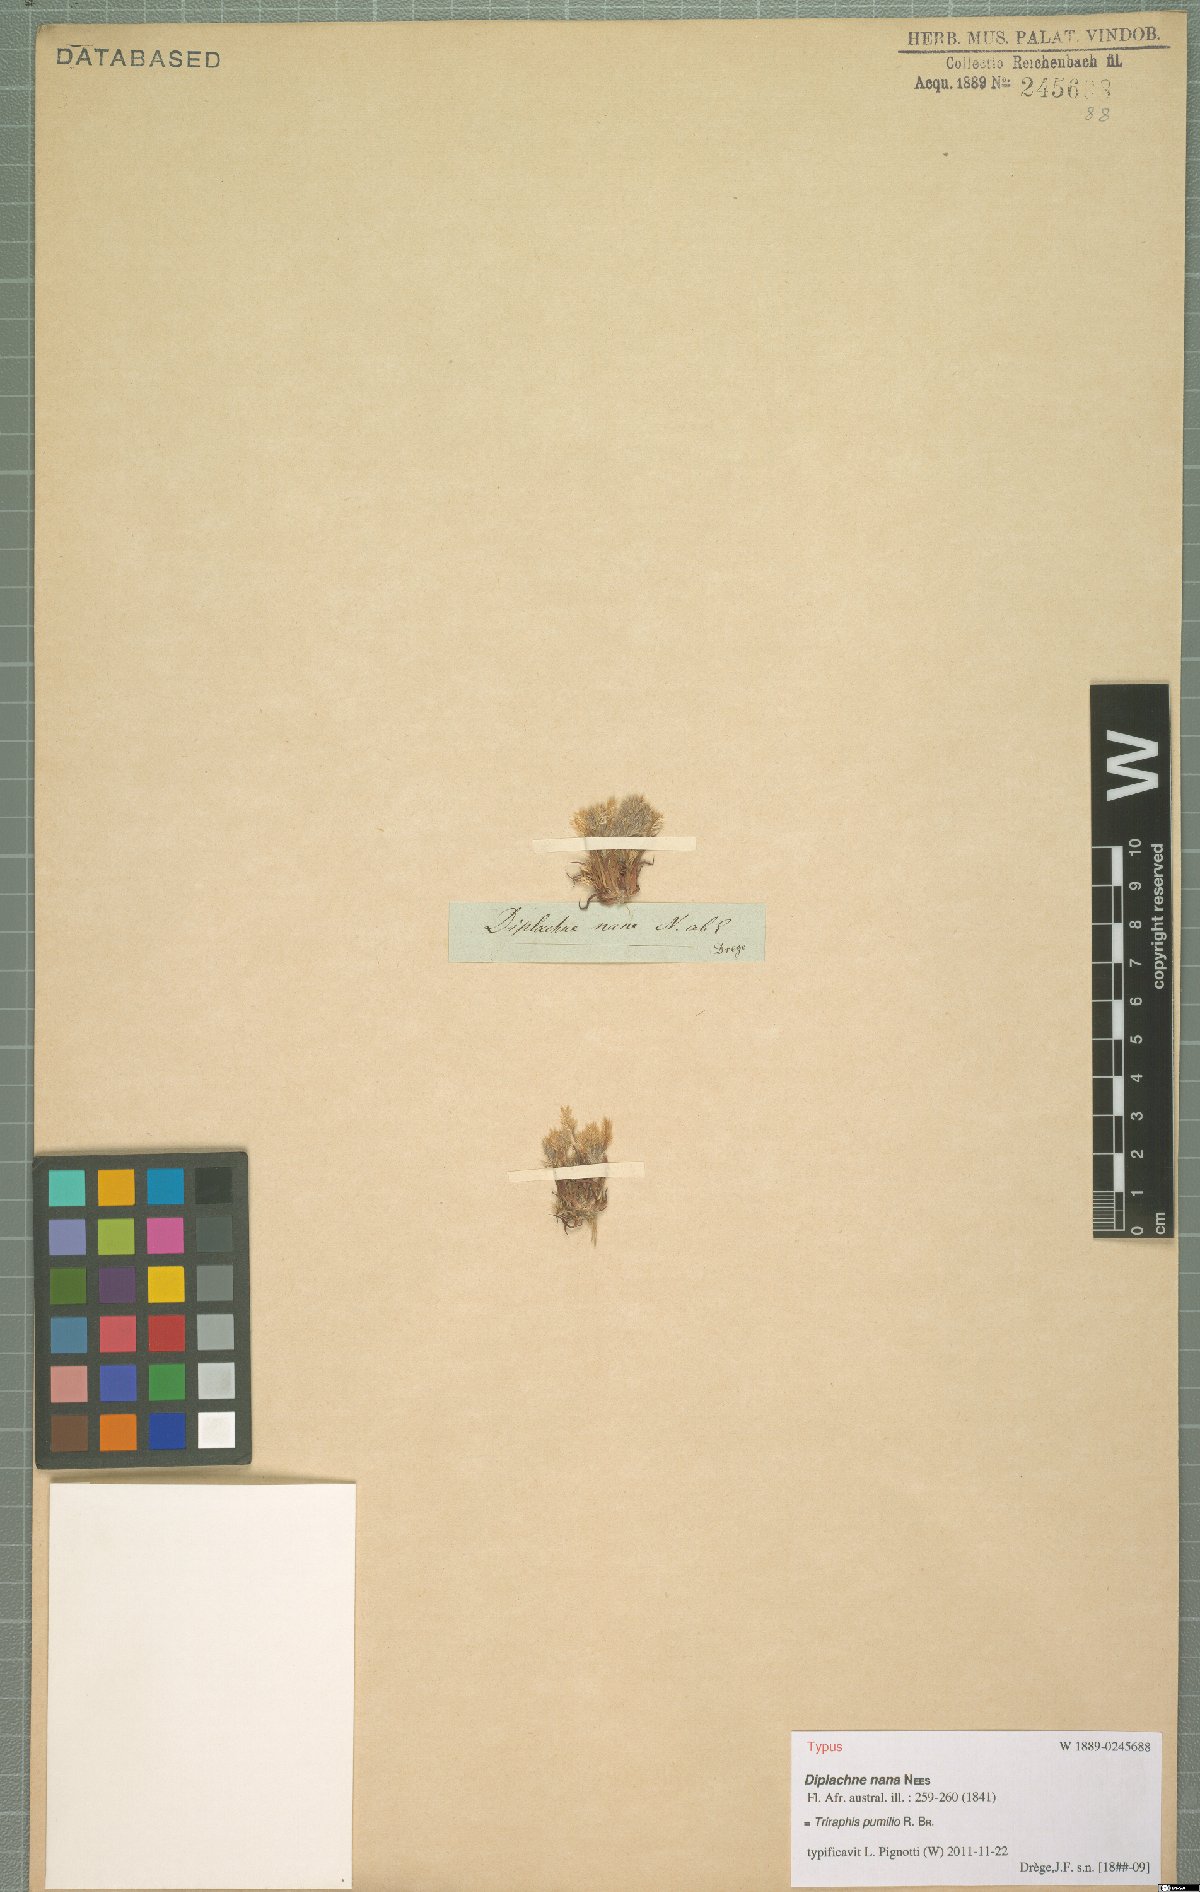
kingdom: Plantae
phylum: Tracheophyta
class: Liliopsida
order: Poales
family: Poaceae
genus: Triraphis
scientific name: Triraphis pumilio
